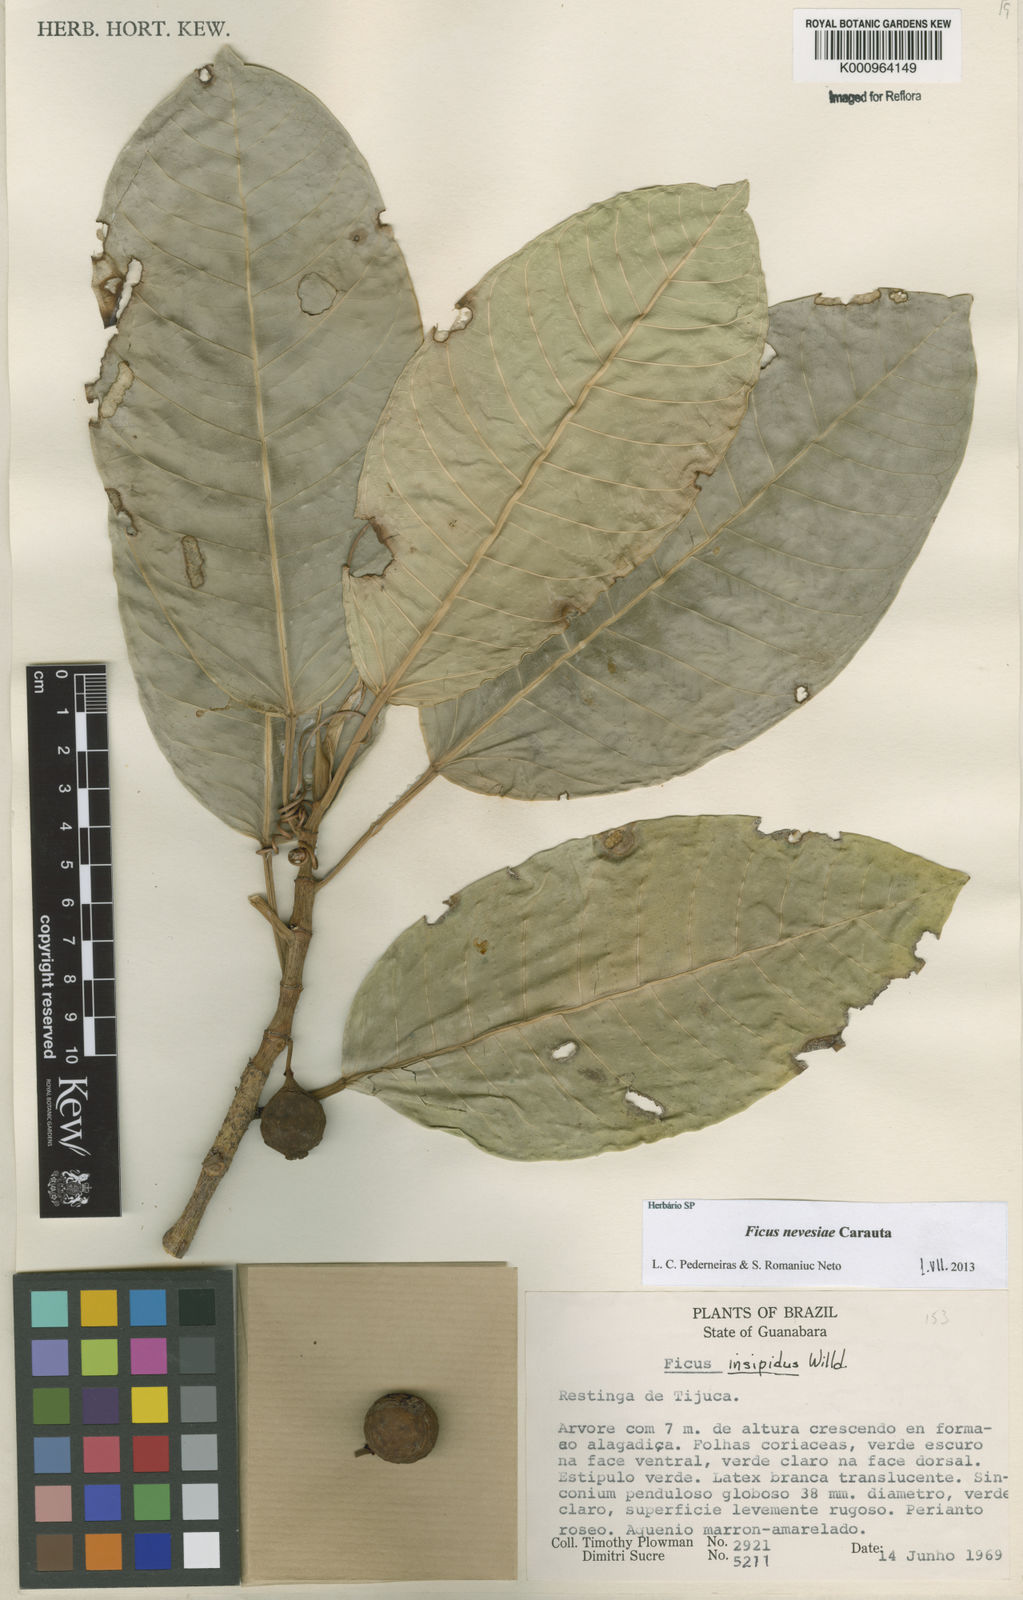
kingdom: Plantae
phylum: Tracheophyta
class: Magnoliopsida
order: Rosales
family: Moraceae
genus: Ficus
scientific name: Ficus vermifuga
